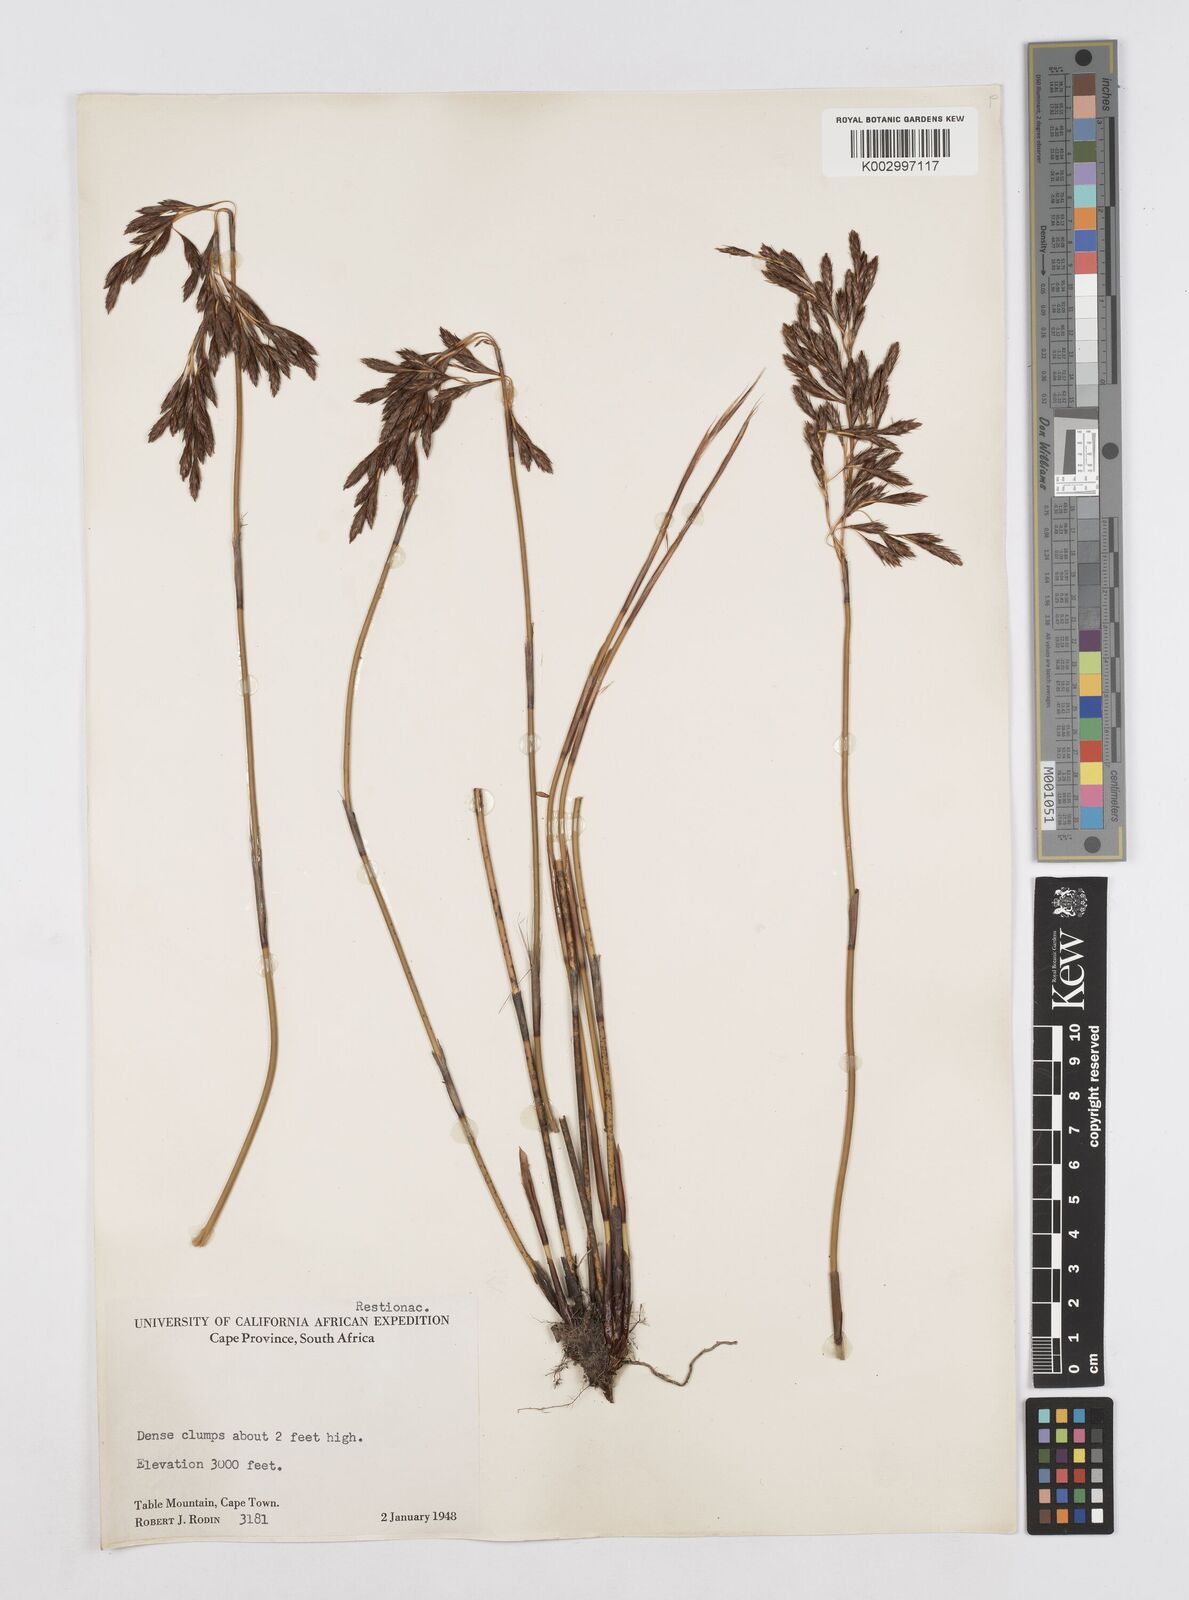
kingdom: Plantae
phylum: Tracheophyta
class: Liliopsida
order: Poales
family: Restionaceae
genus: Thamnochortus
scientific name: Thamnochortus nutans
